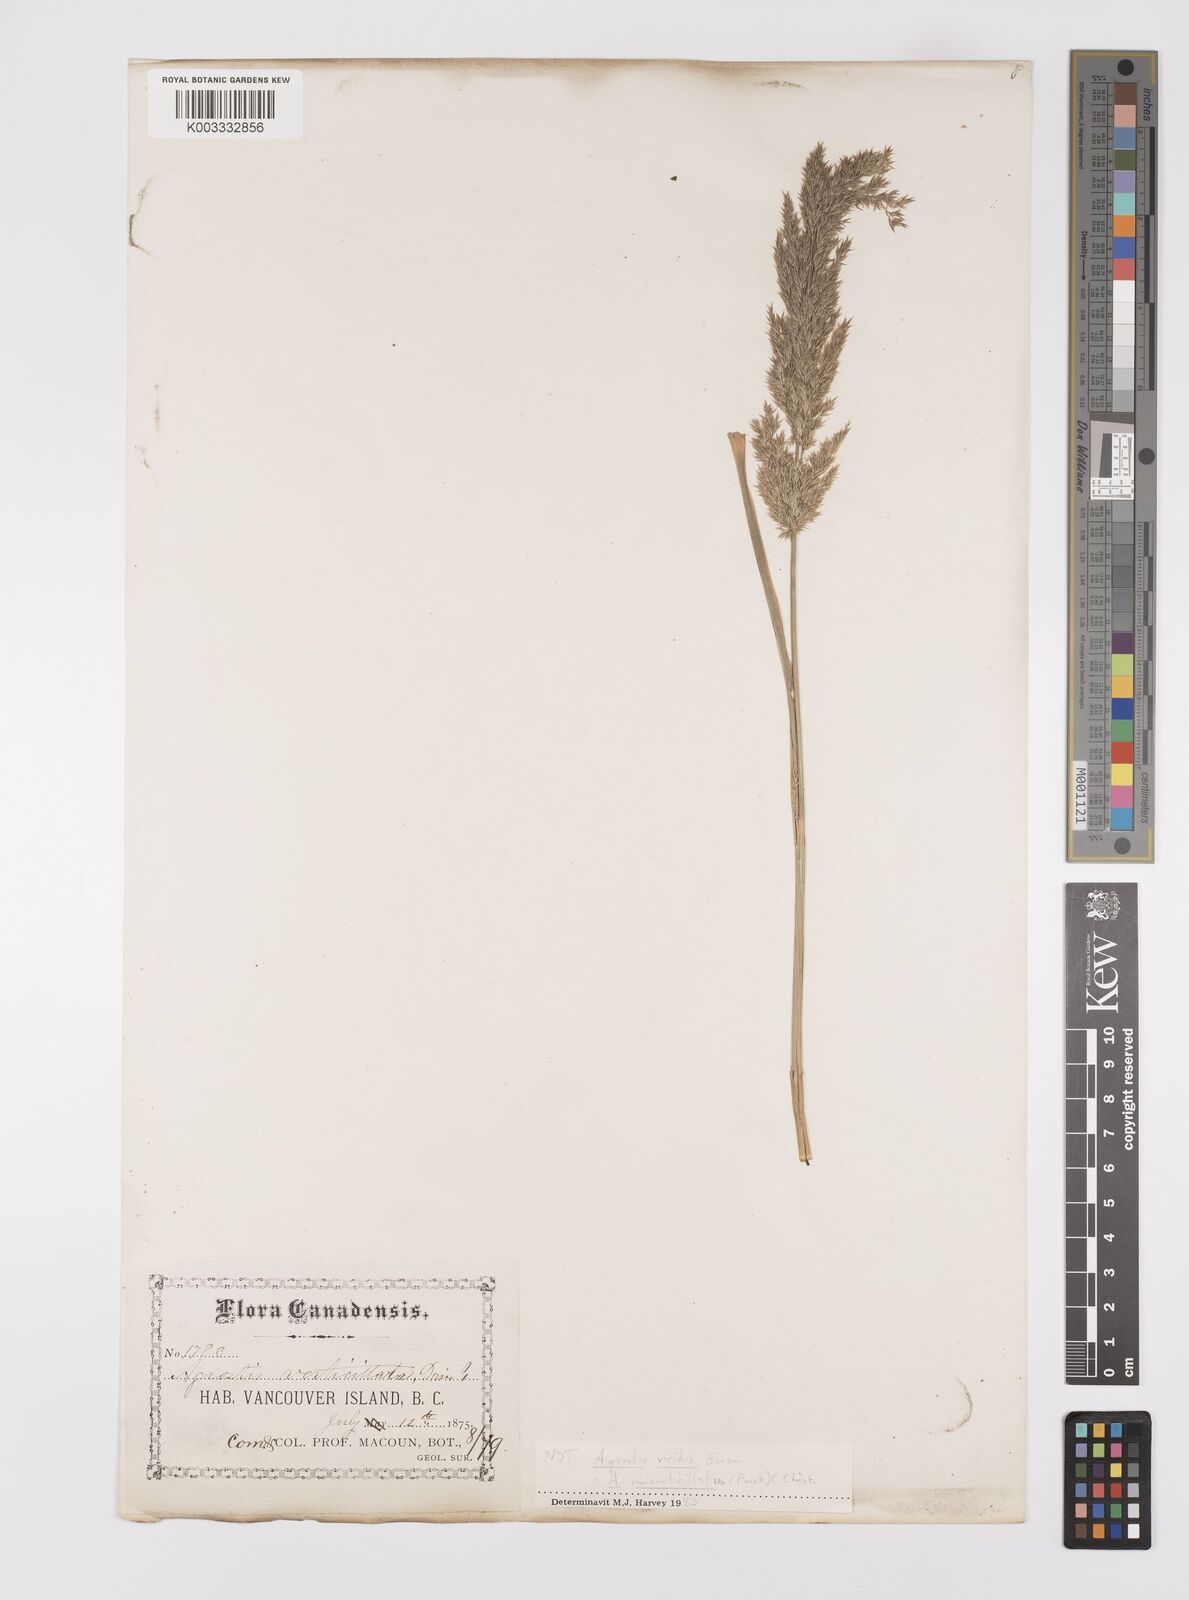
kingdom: Plantae
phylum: Tracheophyta
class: Liliopsida
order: Poales
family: Poaceae
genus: Polypogon
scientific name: Polypogon viridis
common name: Water bent
